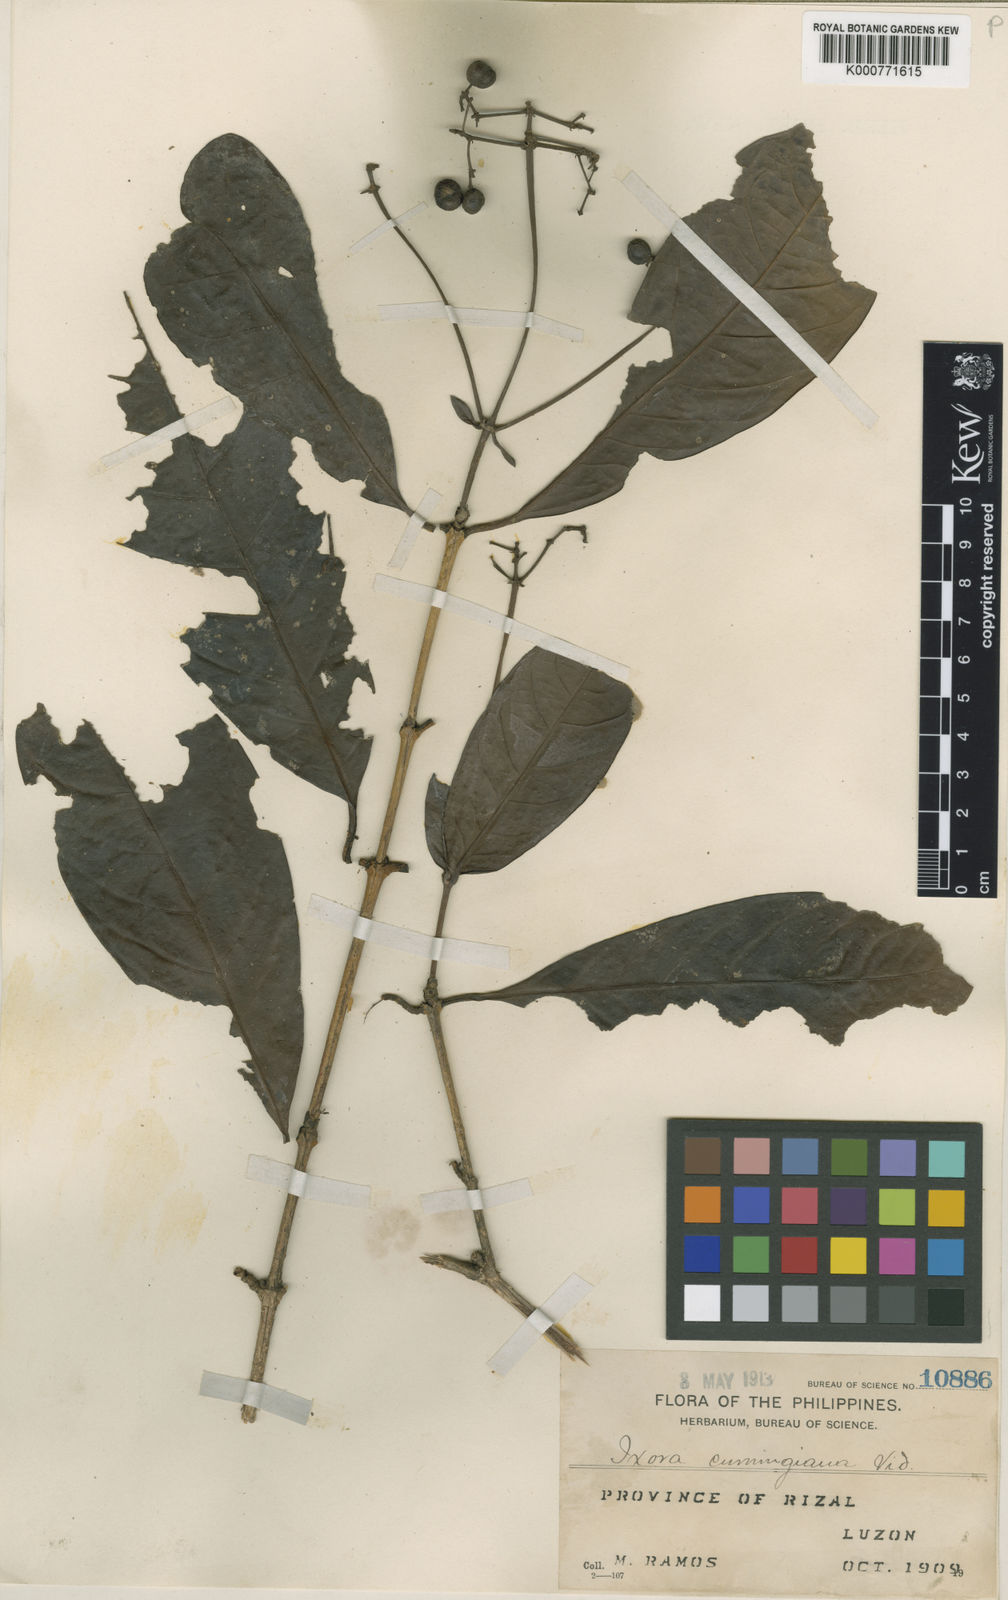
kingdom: Plantae
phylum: Tracheophyta
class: Magnoliopsida
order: Gentianales
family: Rubiaceae
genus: Ixora
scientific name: Ixora cumingiana
